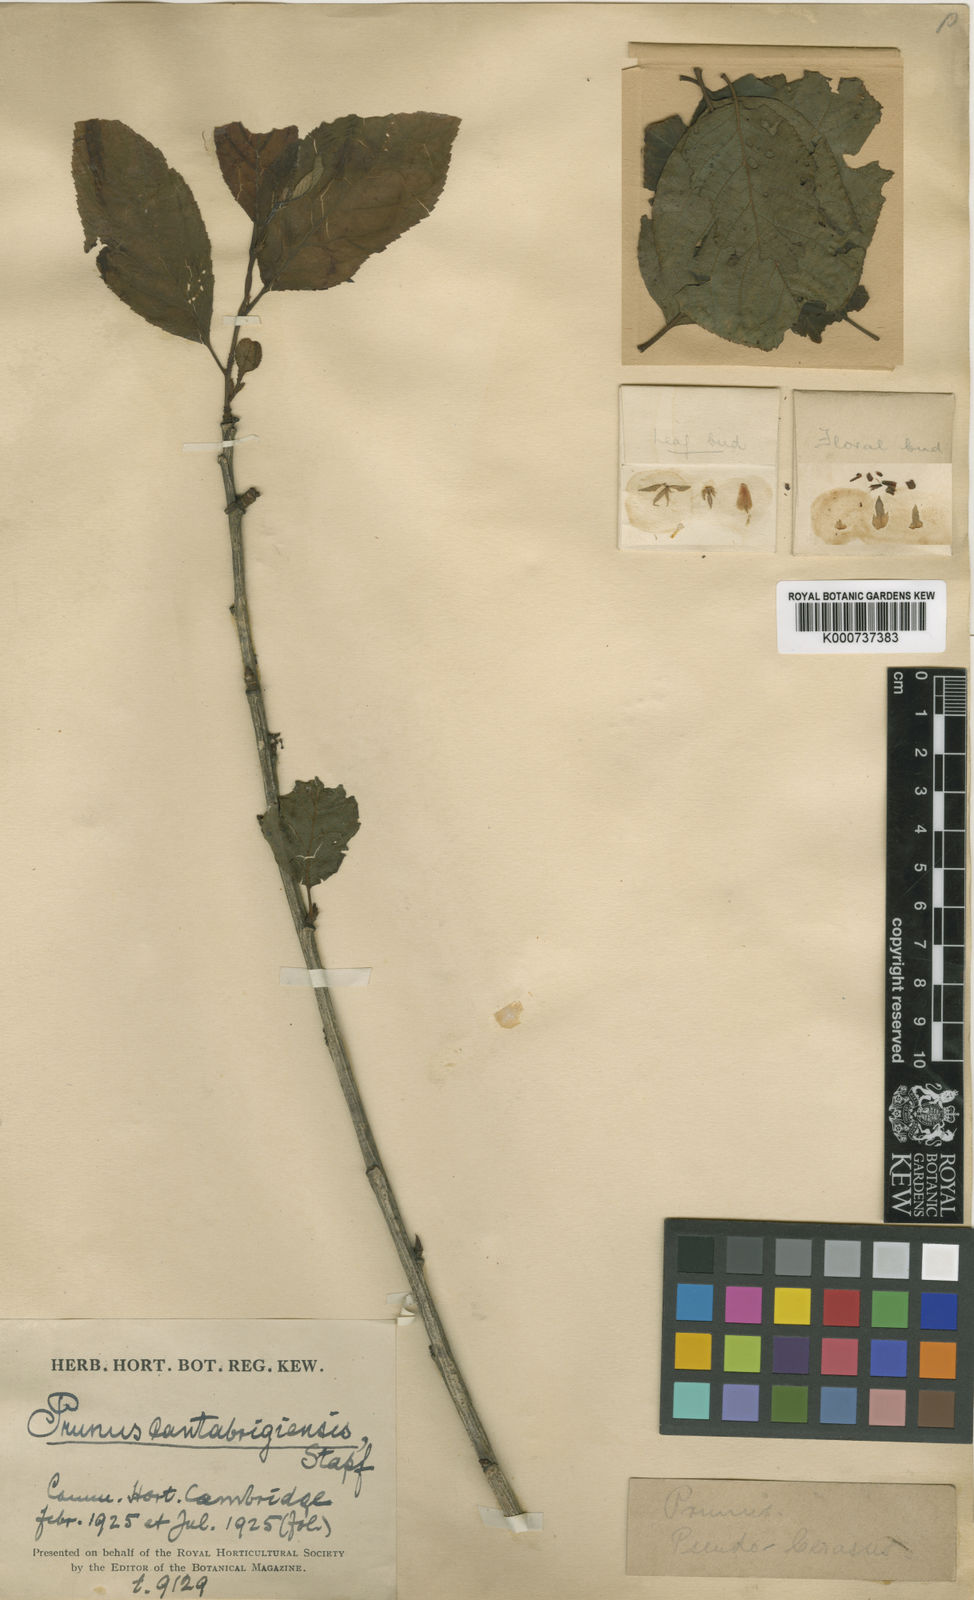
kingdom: Plantae
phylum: Tracheophyta
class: Magnoliopsida
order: Rosales
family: Rosaceae
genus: Prunus
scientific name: Prunus pseudocerasus
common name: Ying tao cherry
